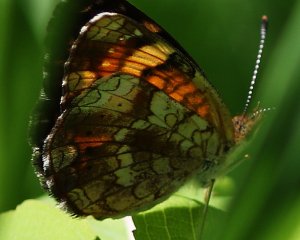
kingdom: Animalia
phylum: Arthropoda
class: Insecta
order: Lepidoptera
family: Nymphalidae
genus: Phyciodes
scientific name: Phyciodes tharos
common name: Northern Crescent
